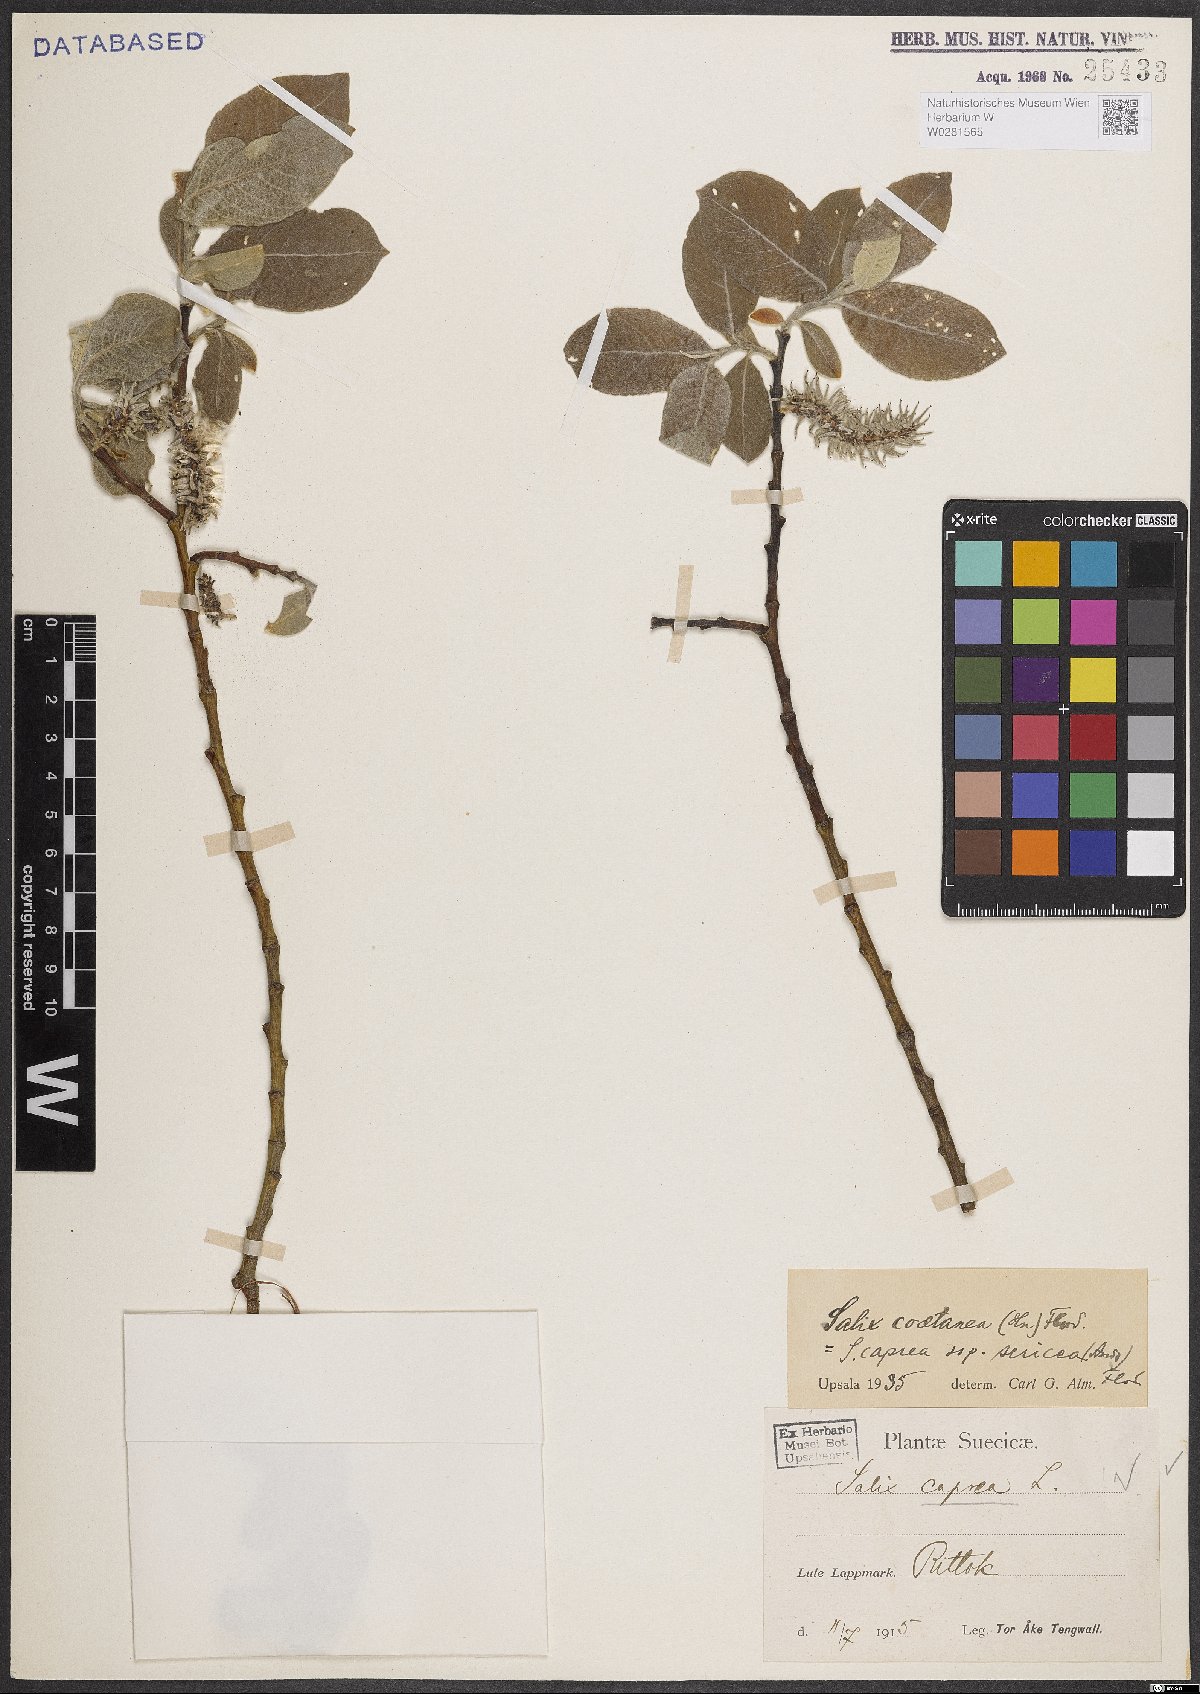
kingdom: Plantae
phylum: Tracheophyta
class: Magnoliopsida
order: Malpighiales
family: Salicaceae
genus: Salix
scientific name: Salix caprea
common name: Goat willow
